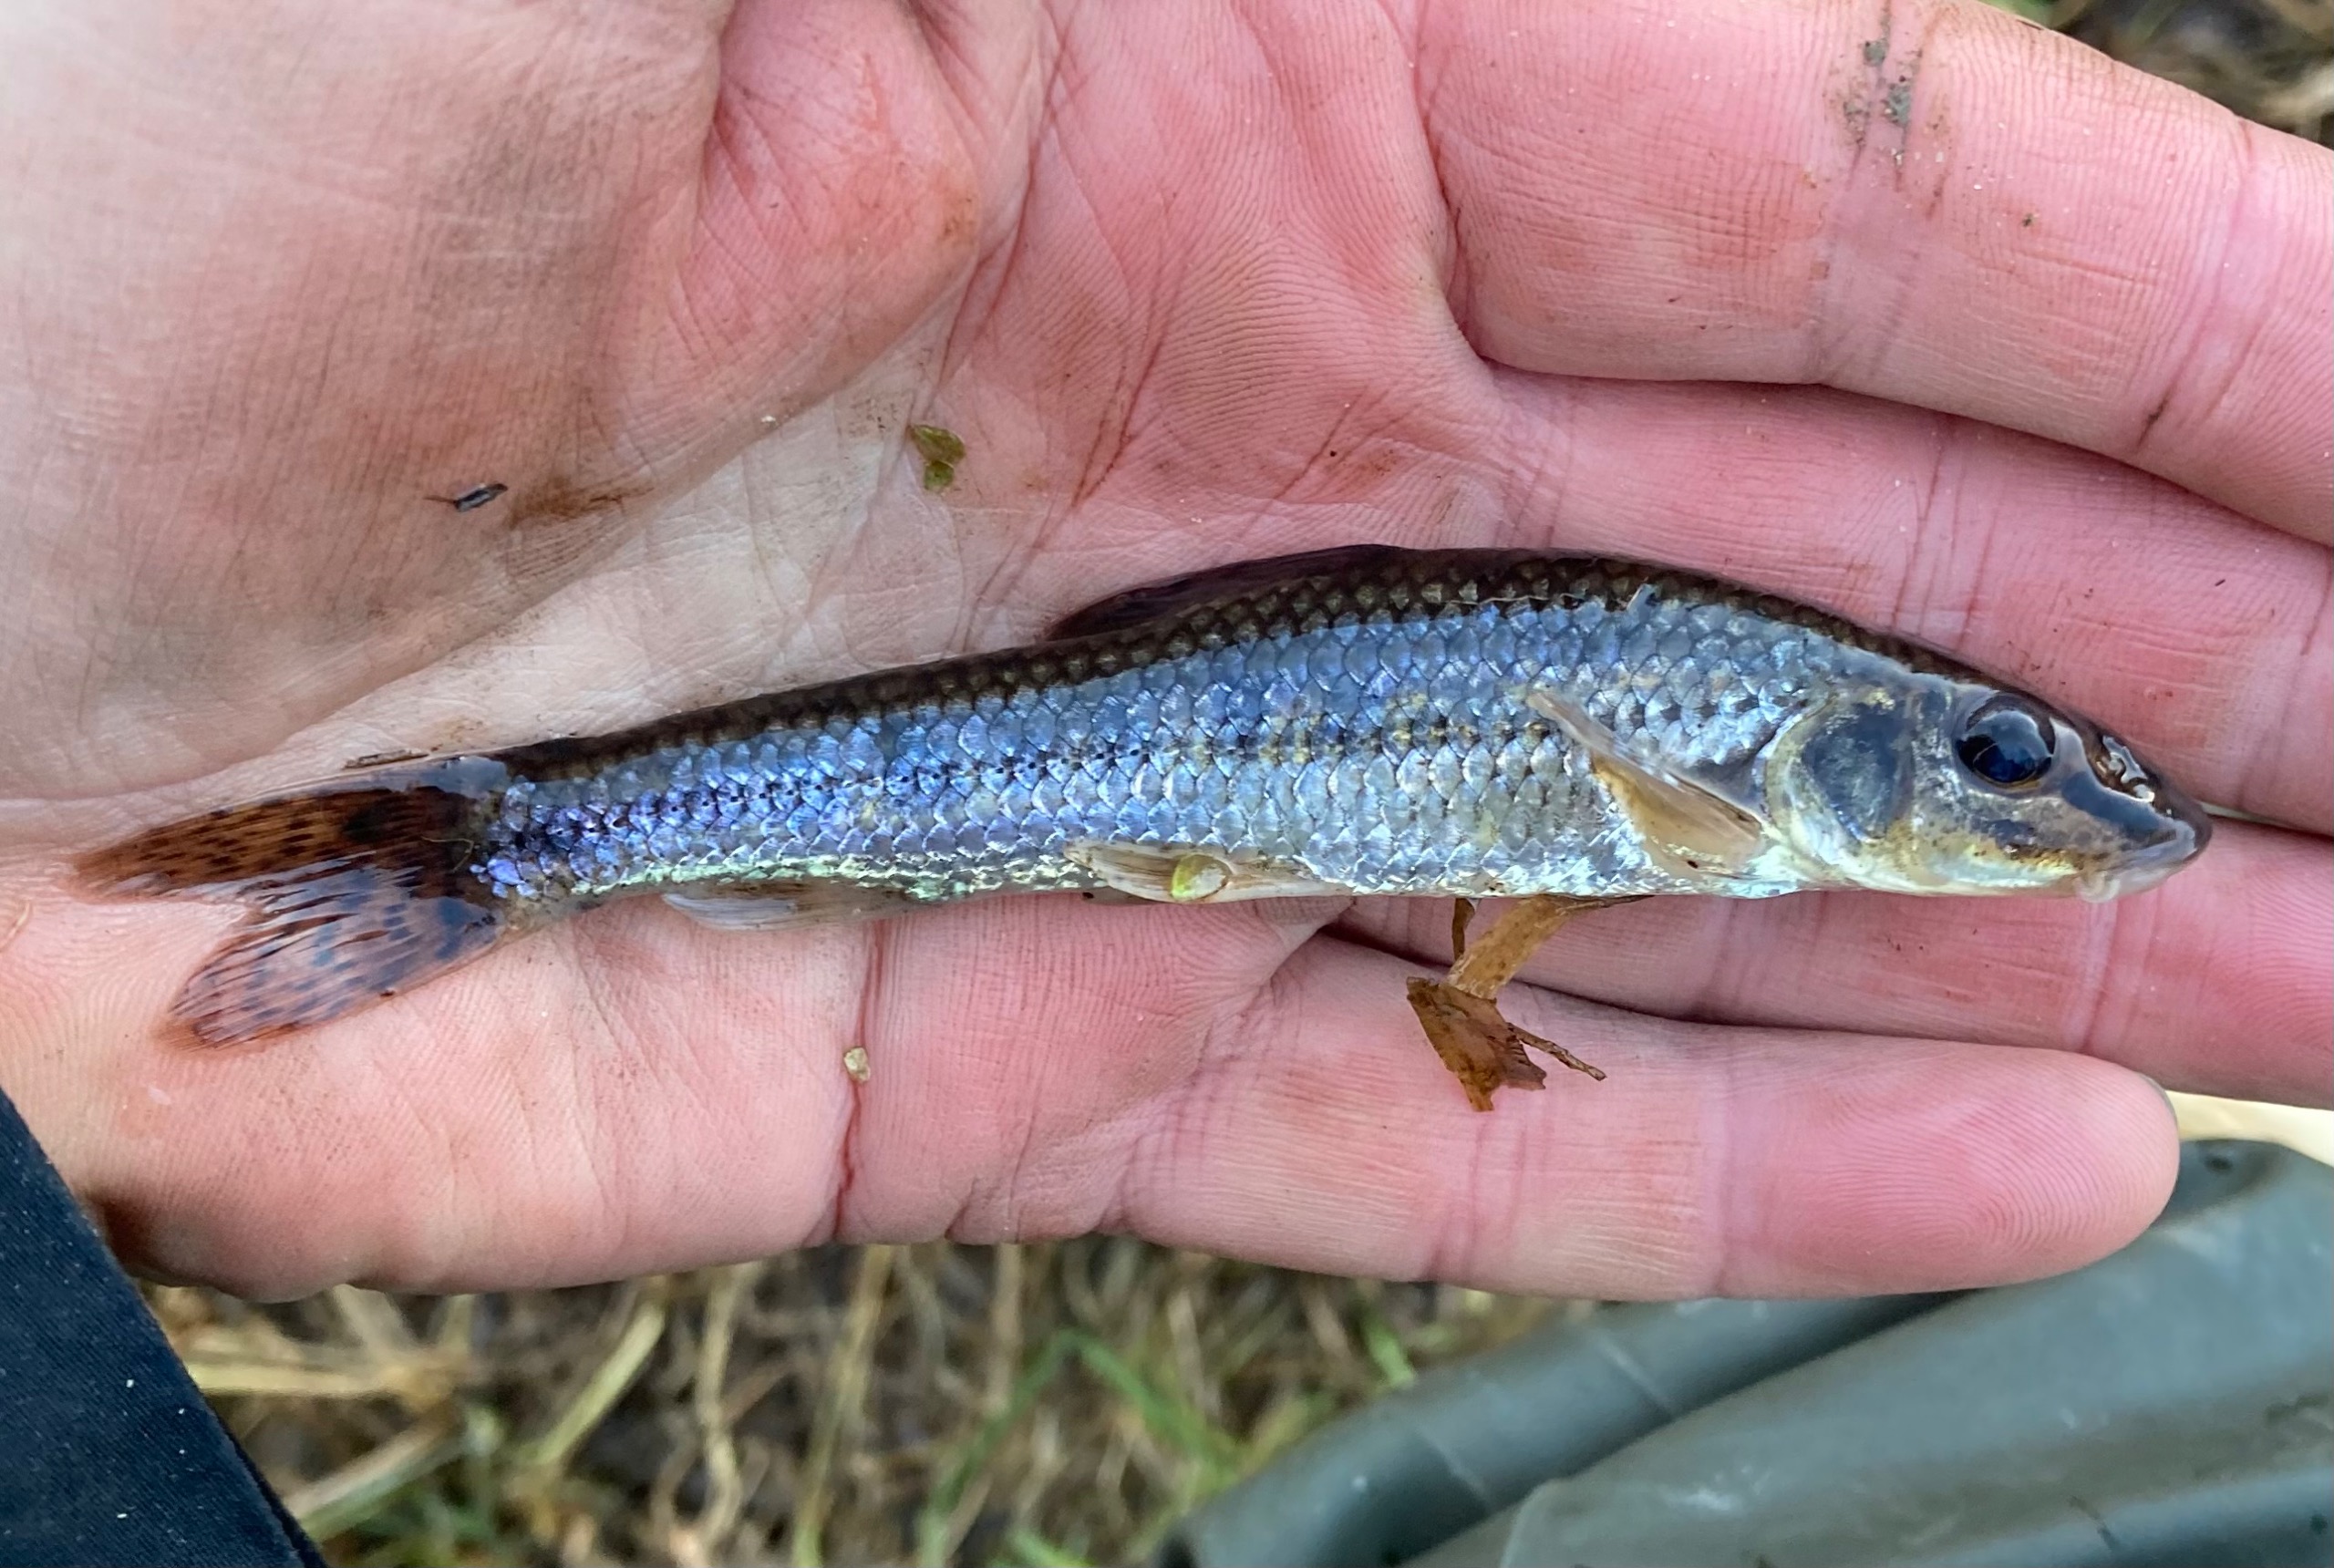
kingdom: Animalia
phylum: Chordata
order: Cypriniformes
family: Cyprinidae
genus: Gobio
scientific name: Gobio gobio
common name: Grundling
